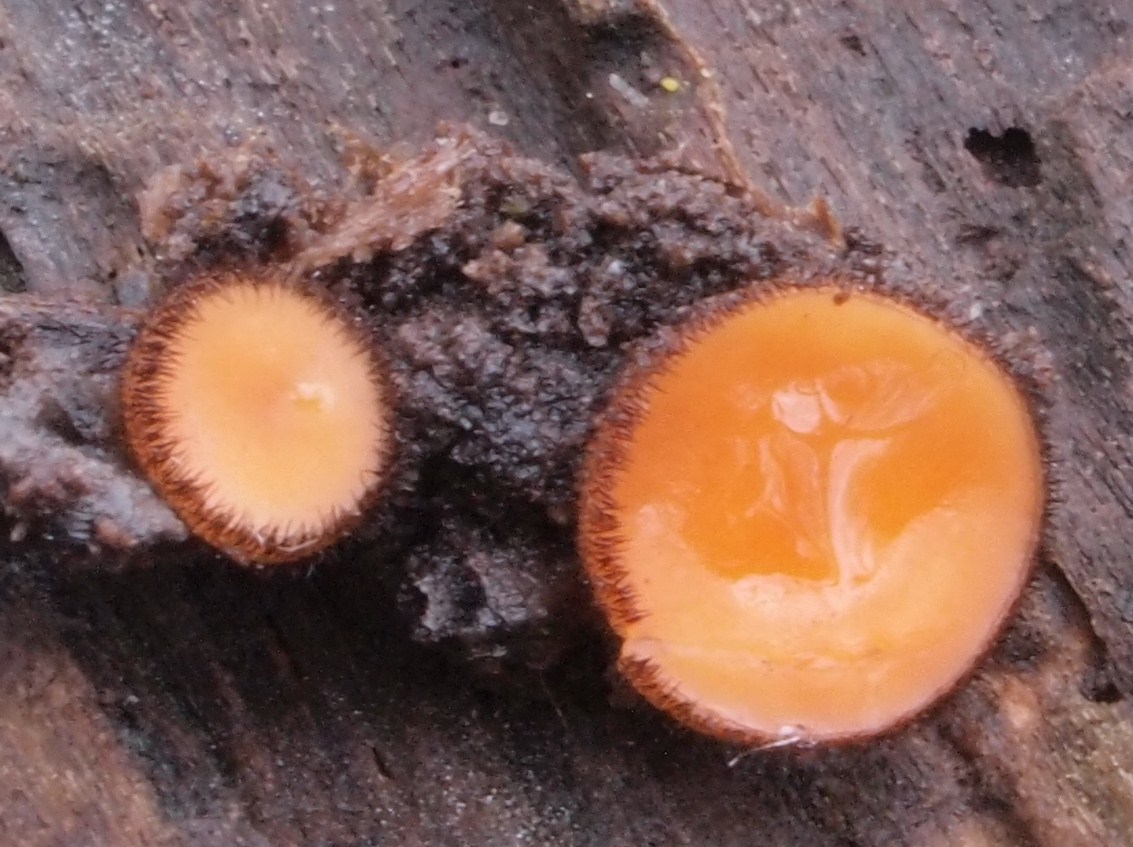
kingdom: Fungi
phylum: Ascomycota
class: Pezizomycetes
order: Pezizales
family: Pyronemataceae
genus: Scutellinia
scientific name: Scutellinia scutellata
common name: frynset skjoldbæger
